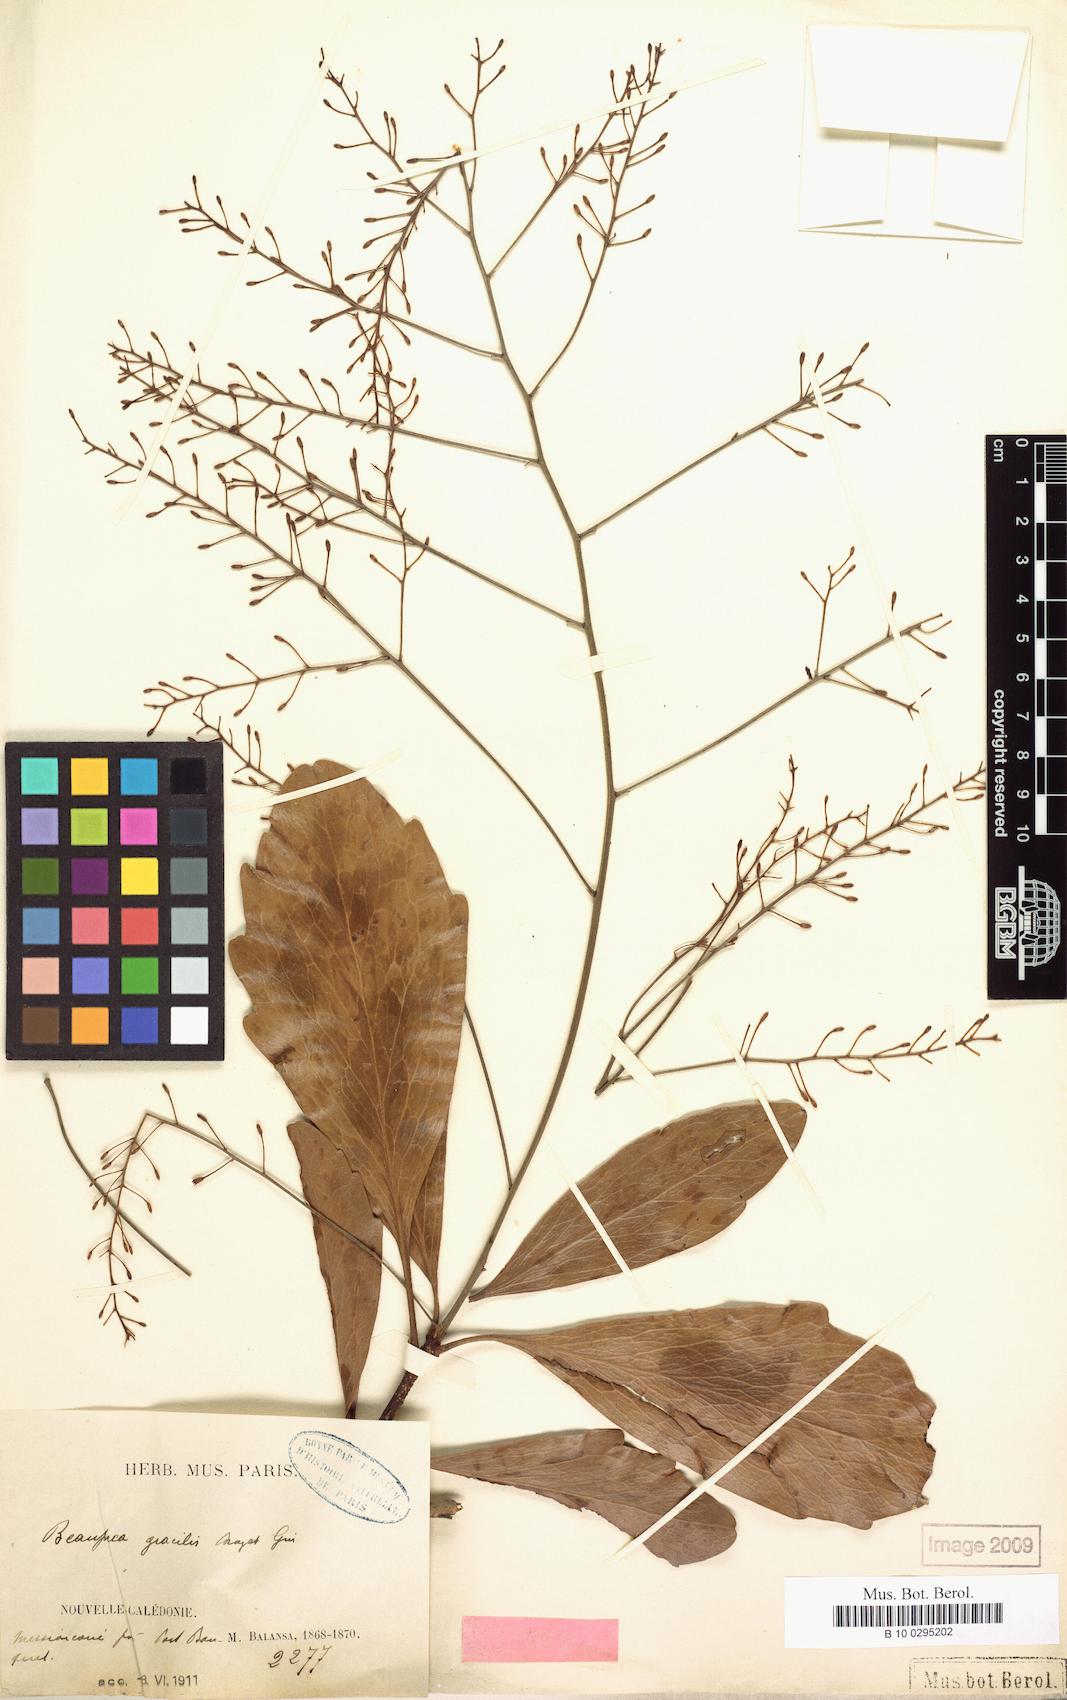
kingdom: Plantae
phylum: Tracheophyta
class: Magnoliopsida
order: Proteales
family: Proteaceae
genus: Beauprea
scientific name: Beauprea gracilis
